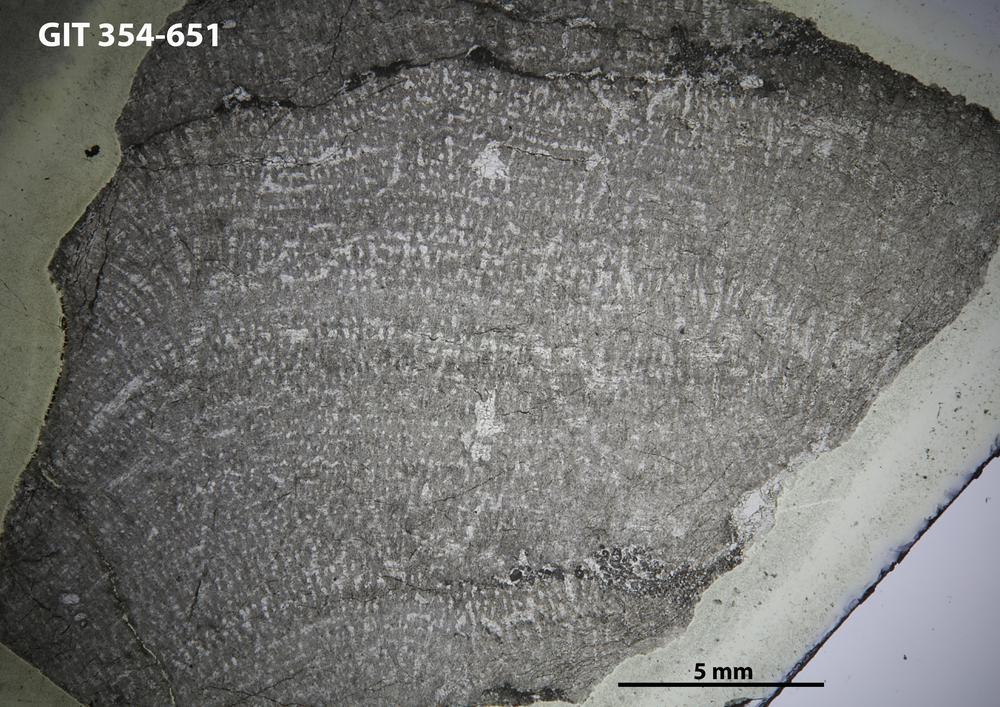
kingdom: Animalia
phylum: Porifera
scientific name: Porifera
